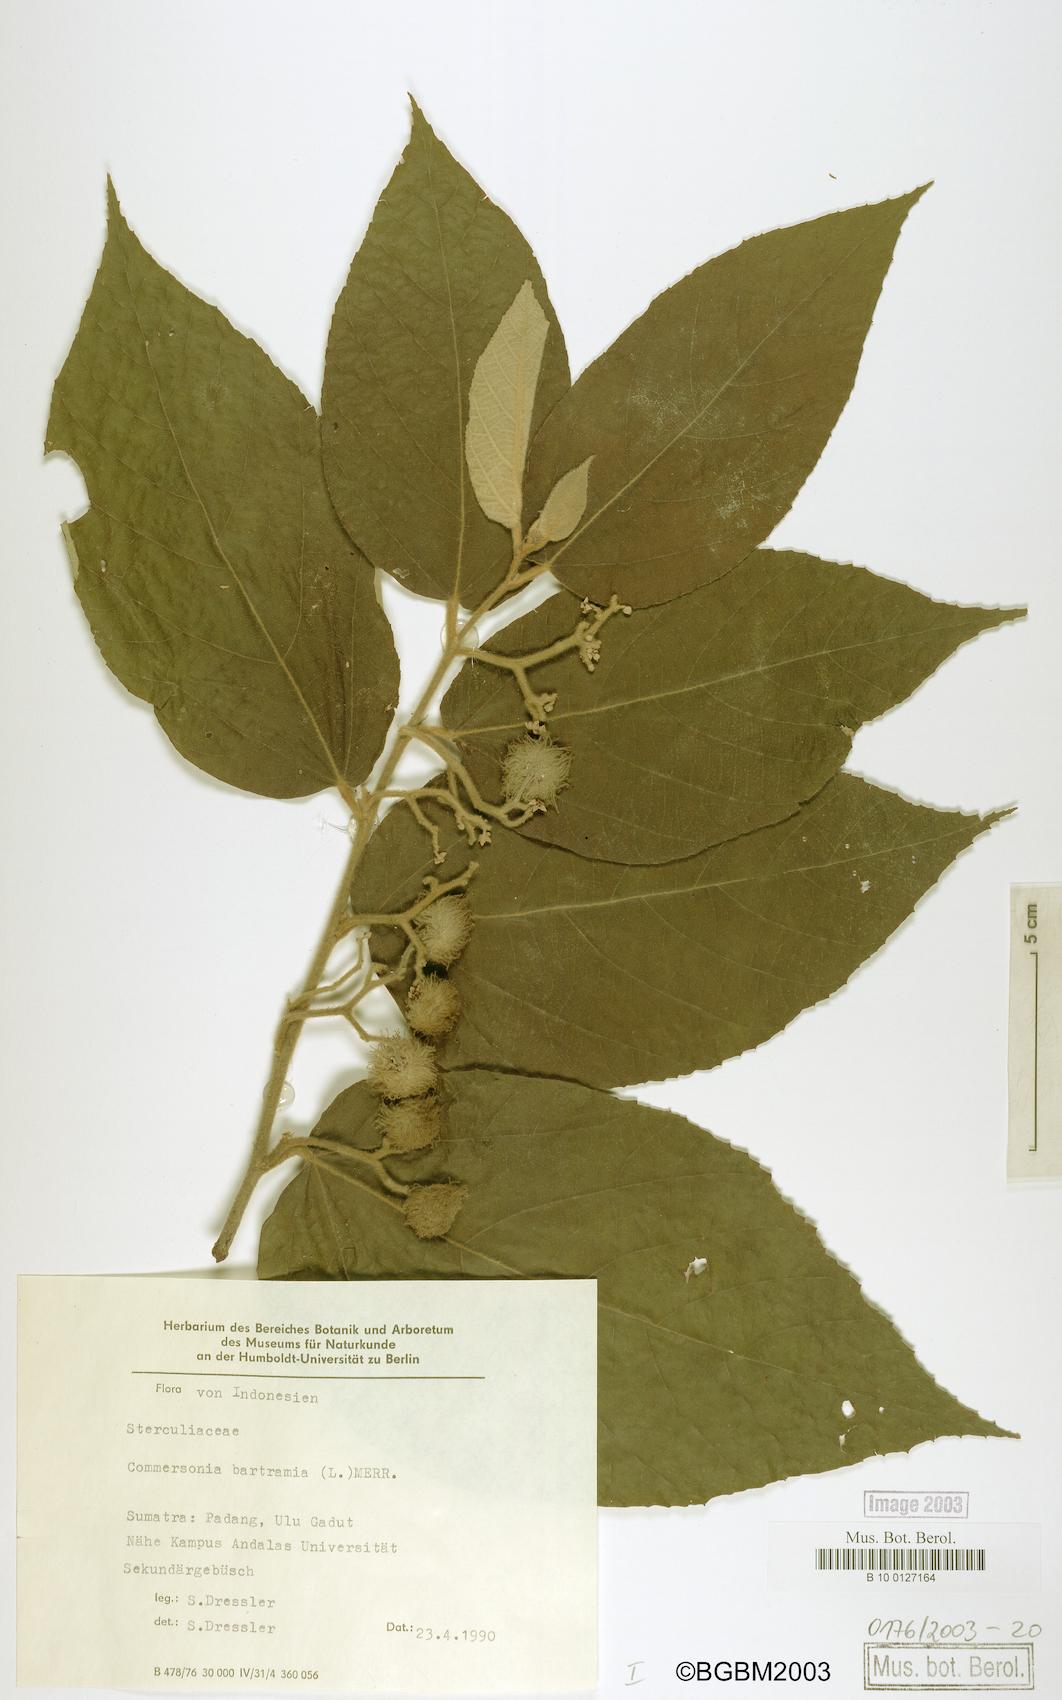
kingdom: Plantae
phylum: Tracheophyta
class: Magnoliopsida
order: Malvales
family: Malvaceae
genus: Commersonia
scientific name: Commersonia bartramia
